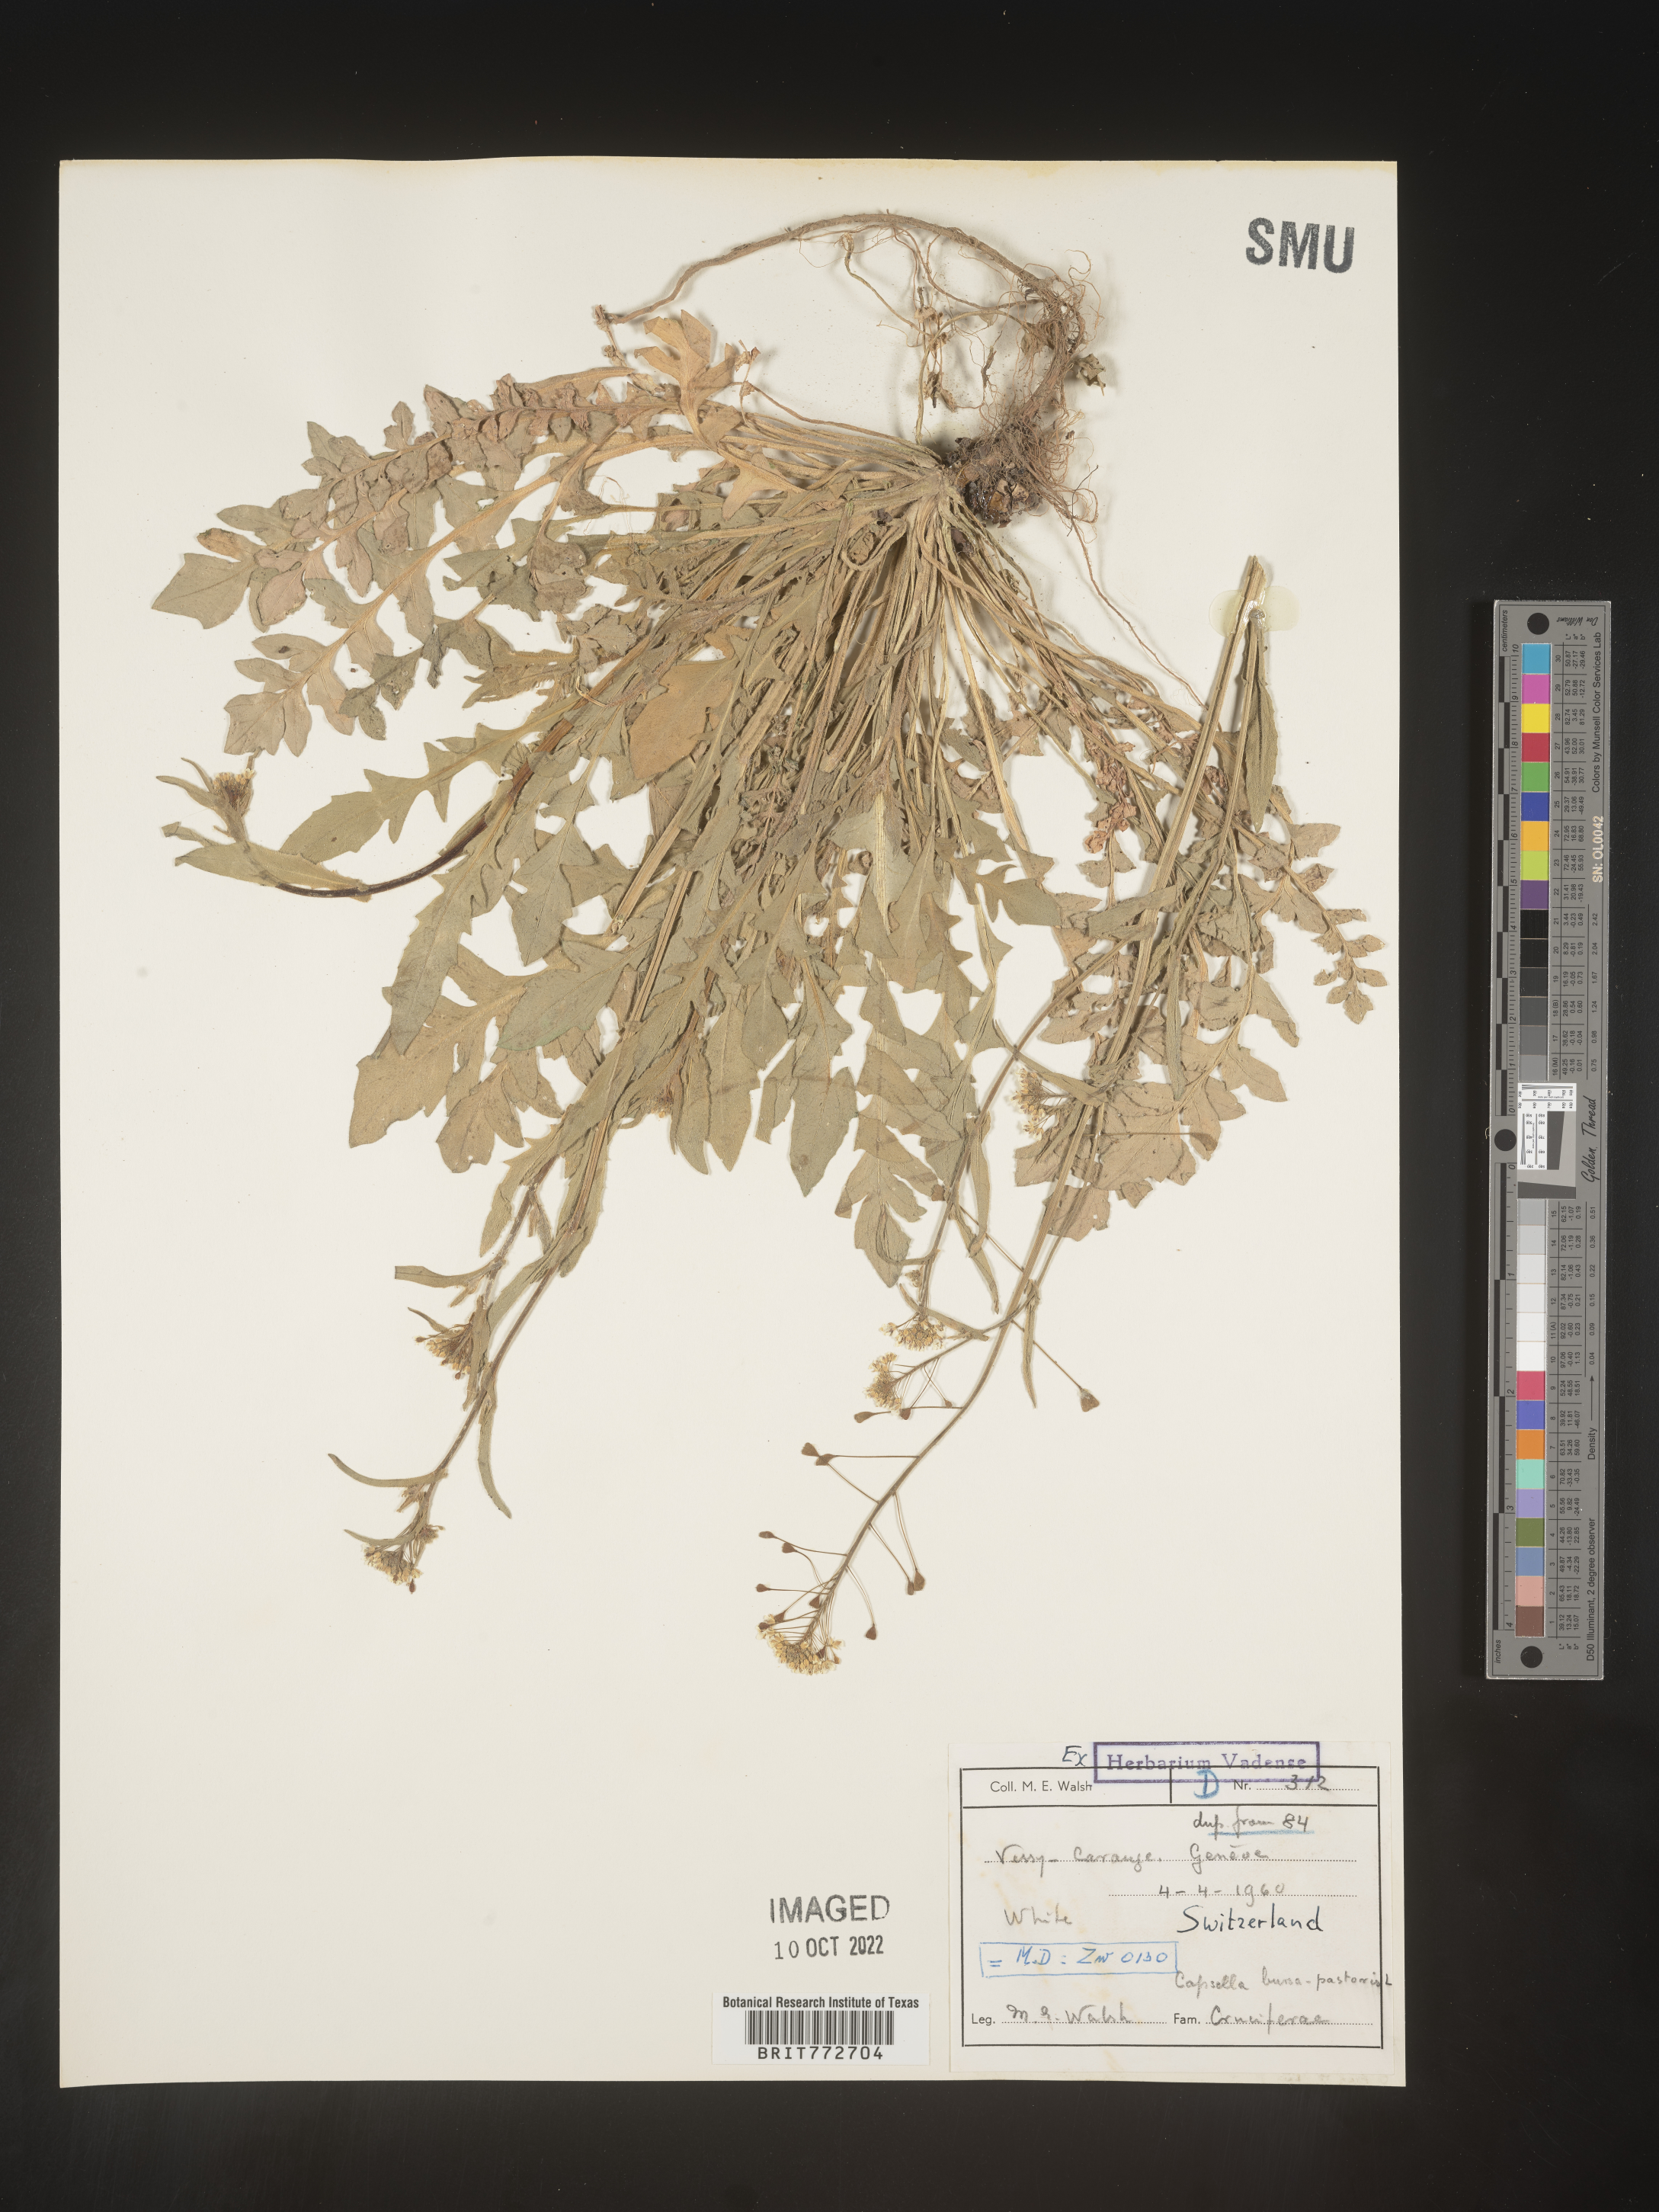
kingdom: Plantae
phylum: Tracheophyta
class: Magnoliopsida
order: Brassicales
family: Brassicaceae
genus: Capsella
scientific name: Capsella
